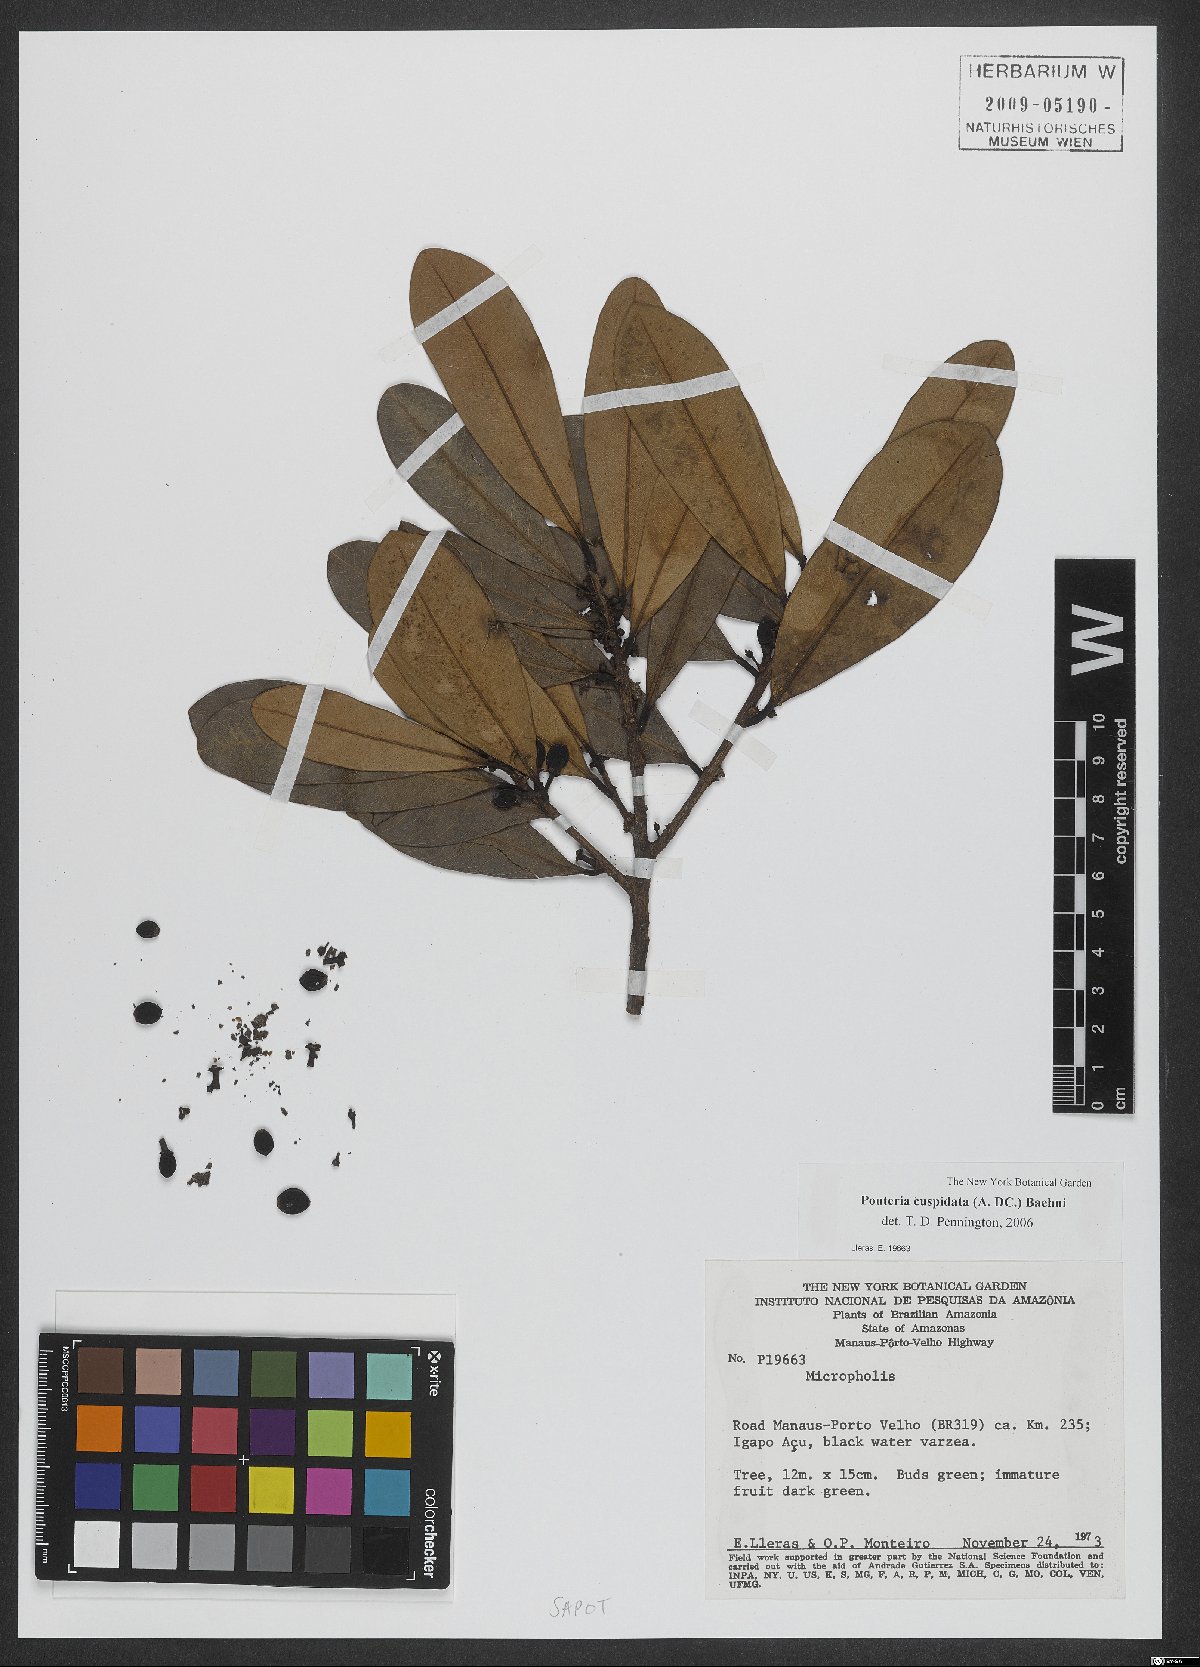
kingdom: Plantae
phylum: Tracheophyta
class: Magnoliopsida
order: Ericales
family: Sapotaceae
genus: Pouteria
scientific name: Pouteria cuspidata
